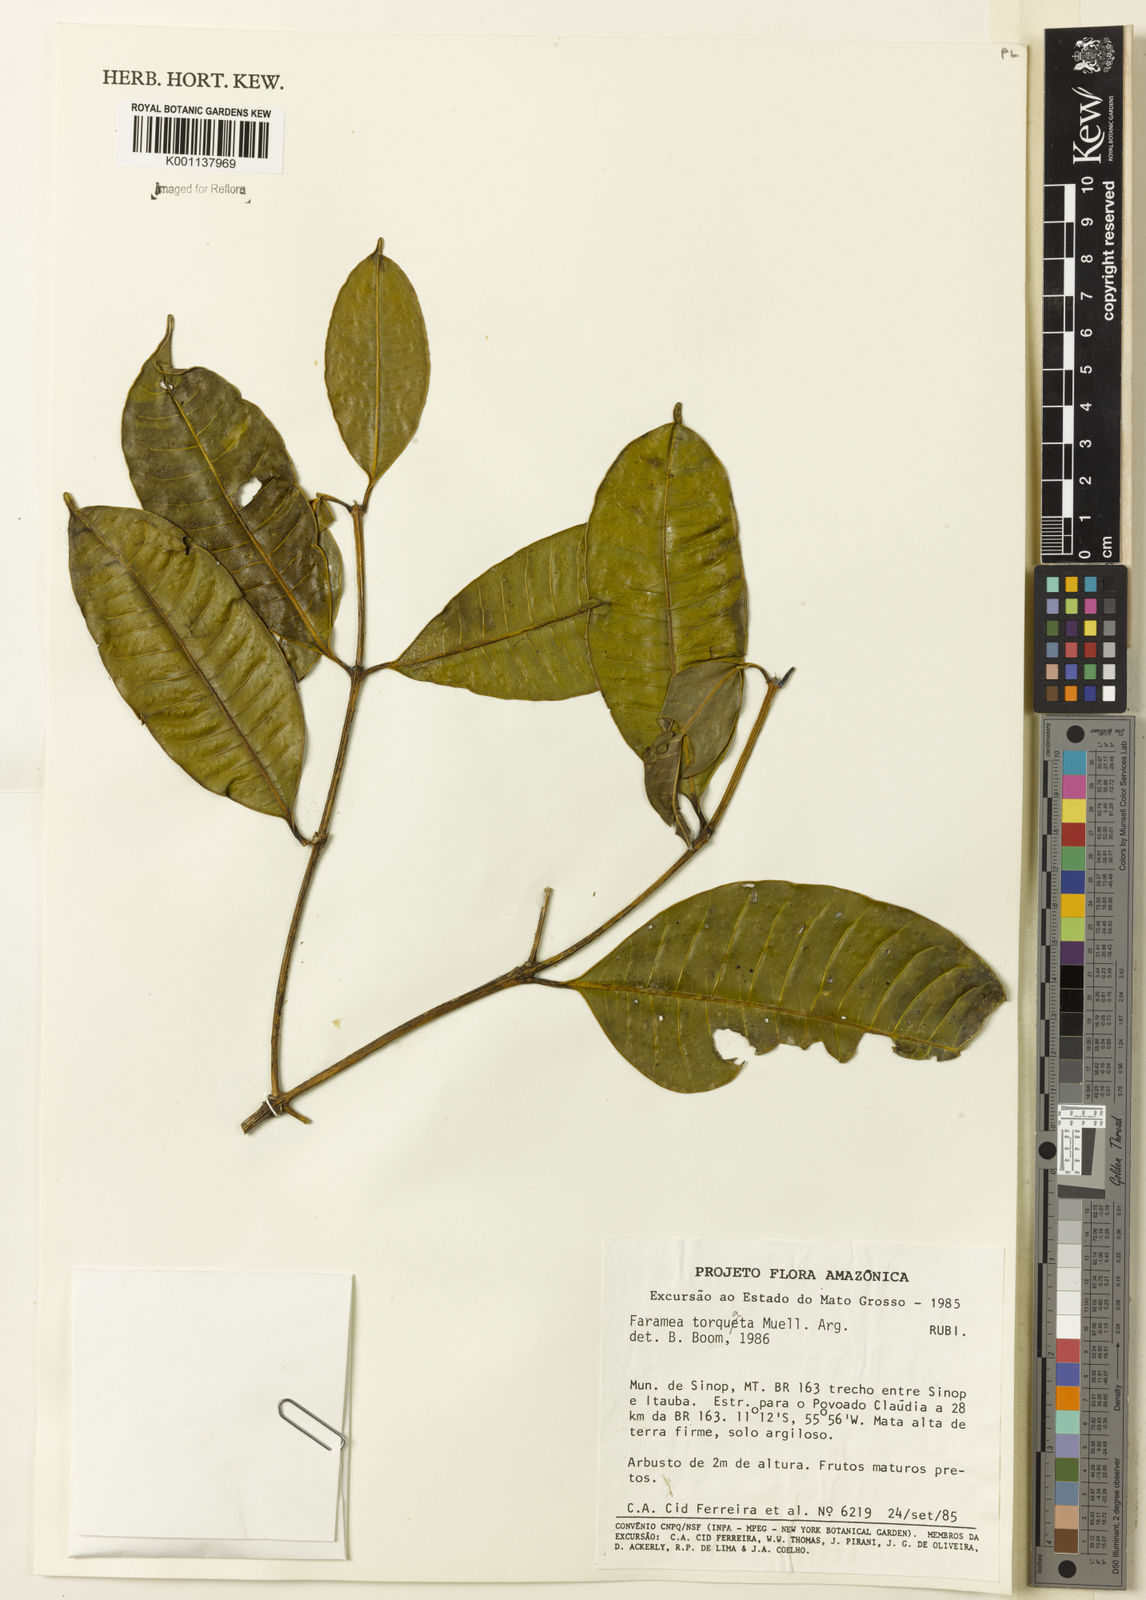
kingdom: Plantae
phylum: Tracheophyta
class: Magnoliopsida
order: Gentianales
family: Rubiaceae
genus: Faramea
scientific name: Faramea
